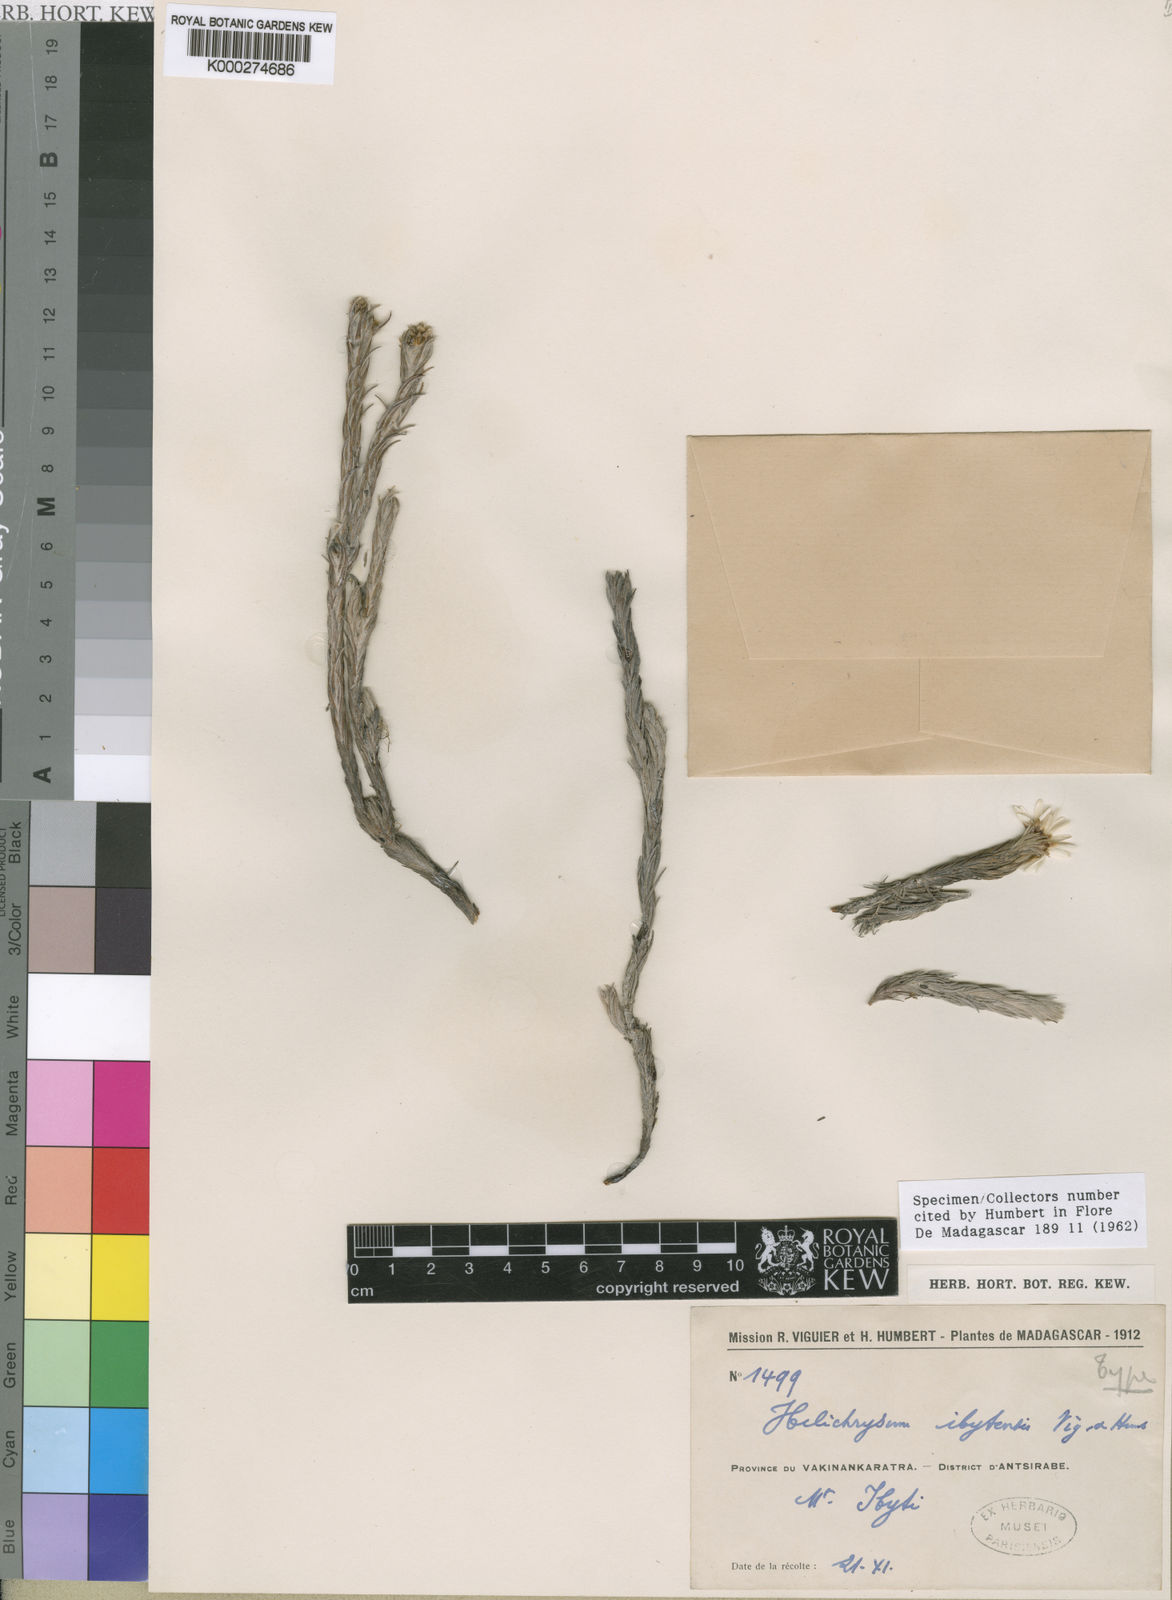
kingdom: Plantae
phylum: Tracheophyta
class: Magnoliopsida
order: Asterales
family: Asteraceae
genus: Helichrysum
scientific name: Helichrysum ibityense
